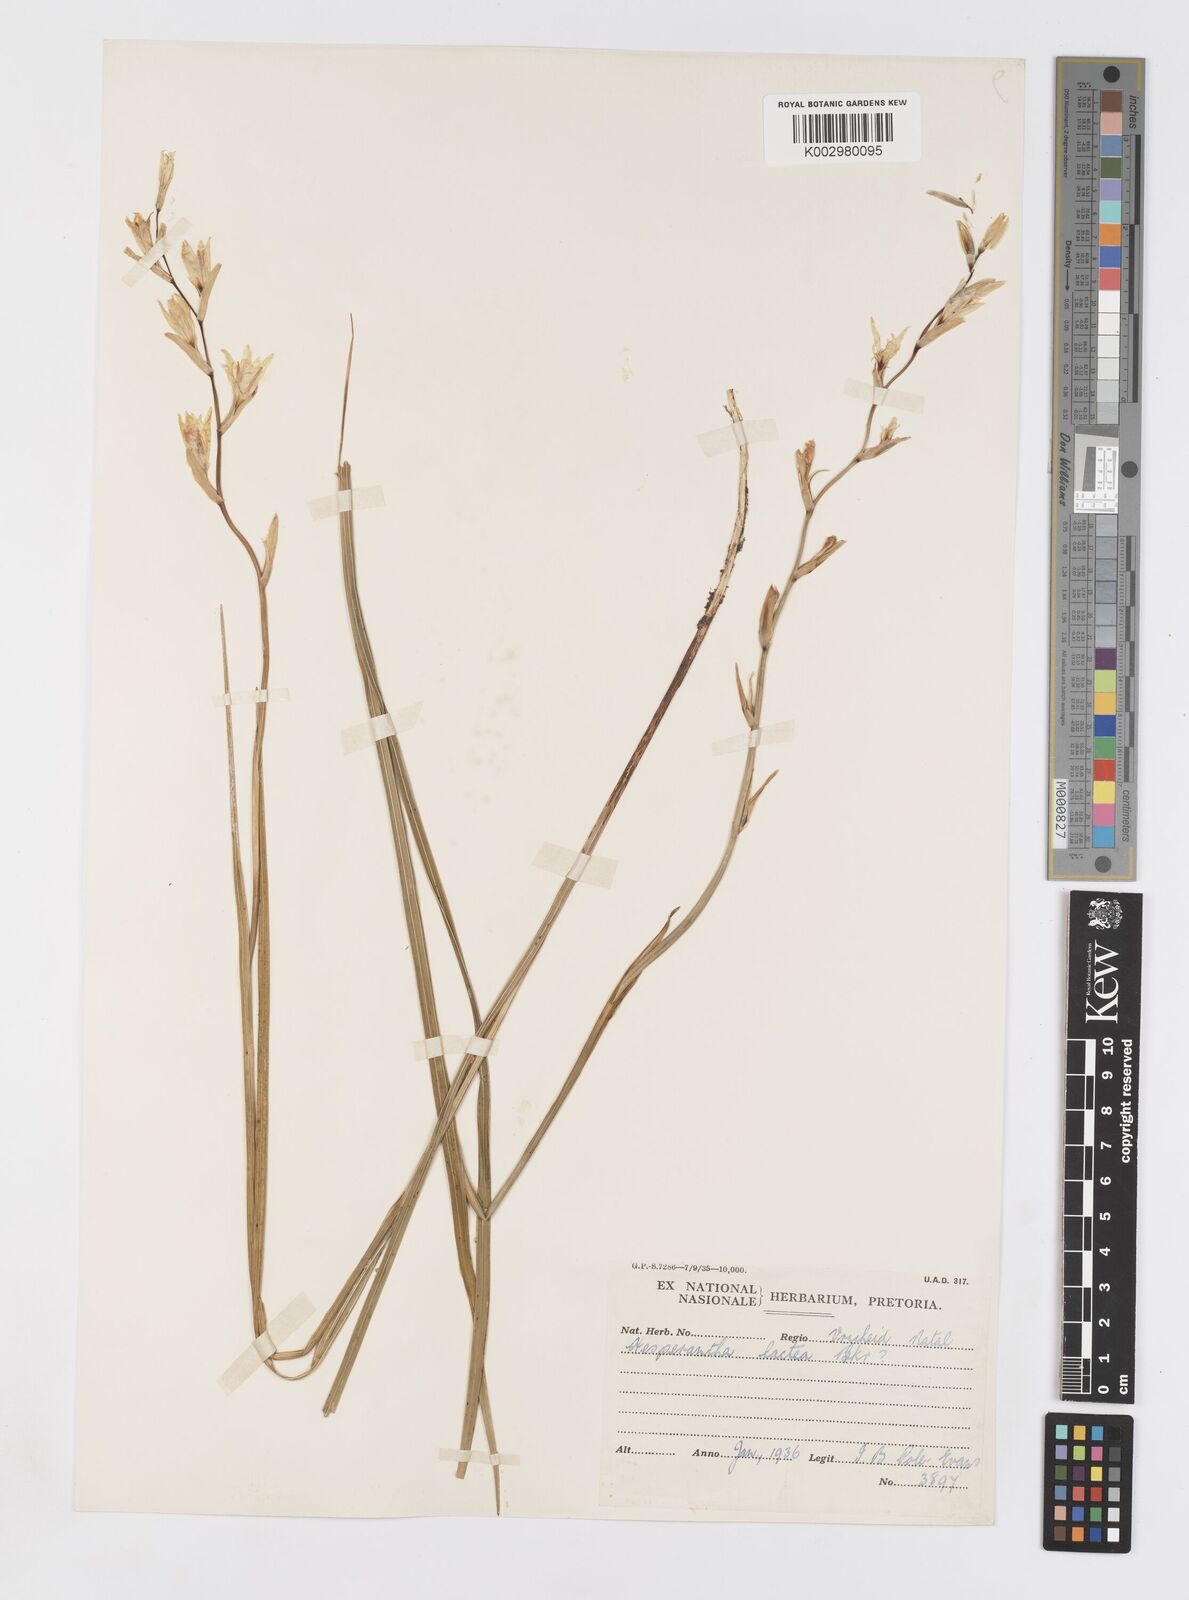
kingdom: Plantae
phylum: Tracheophyta
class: Liliopsida
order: Asparagales
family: Iridaceae
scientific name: Iridaceae
